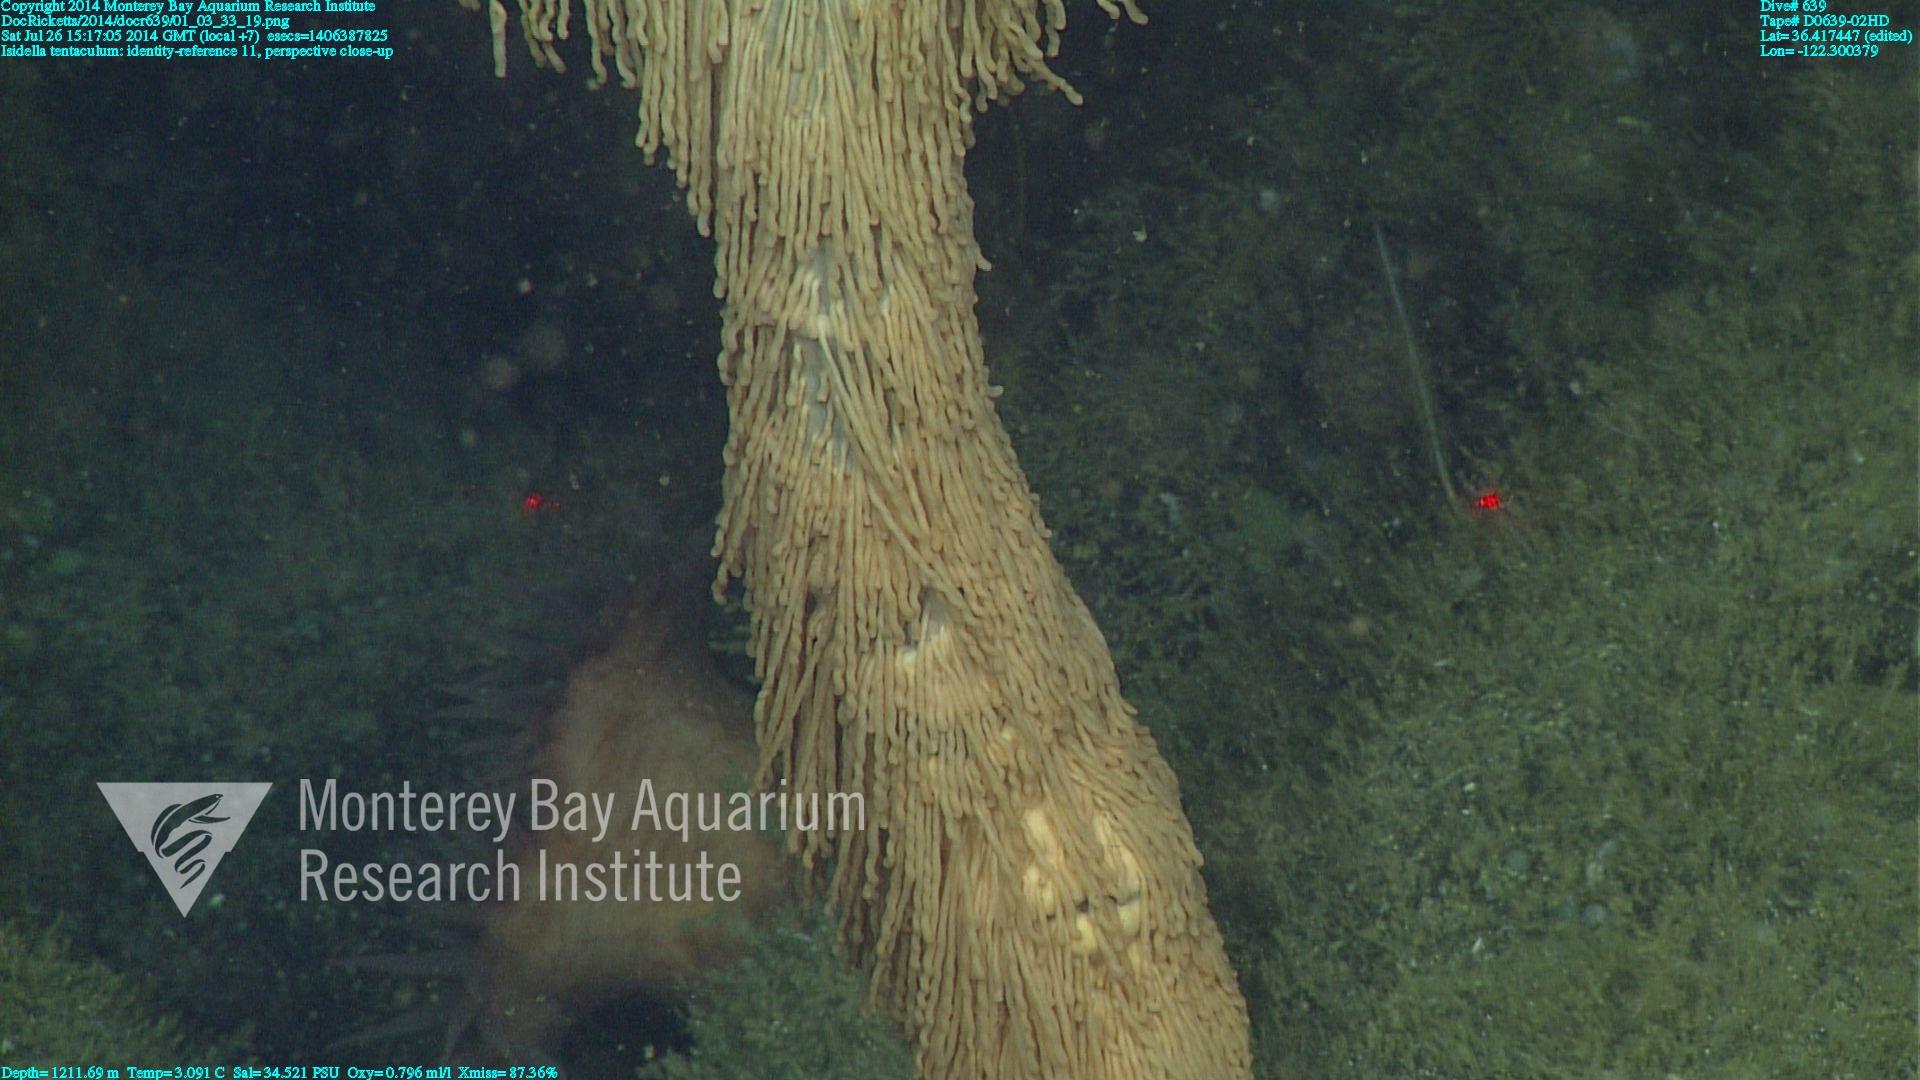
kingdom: Animalia
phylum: Cnidaria
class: Anthozoa
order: Scleralcyonacea
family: Keratoisididae
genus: Isidella
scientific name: Isidella tentaculum
